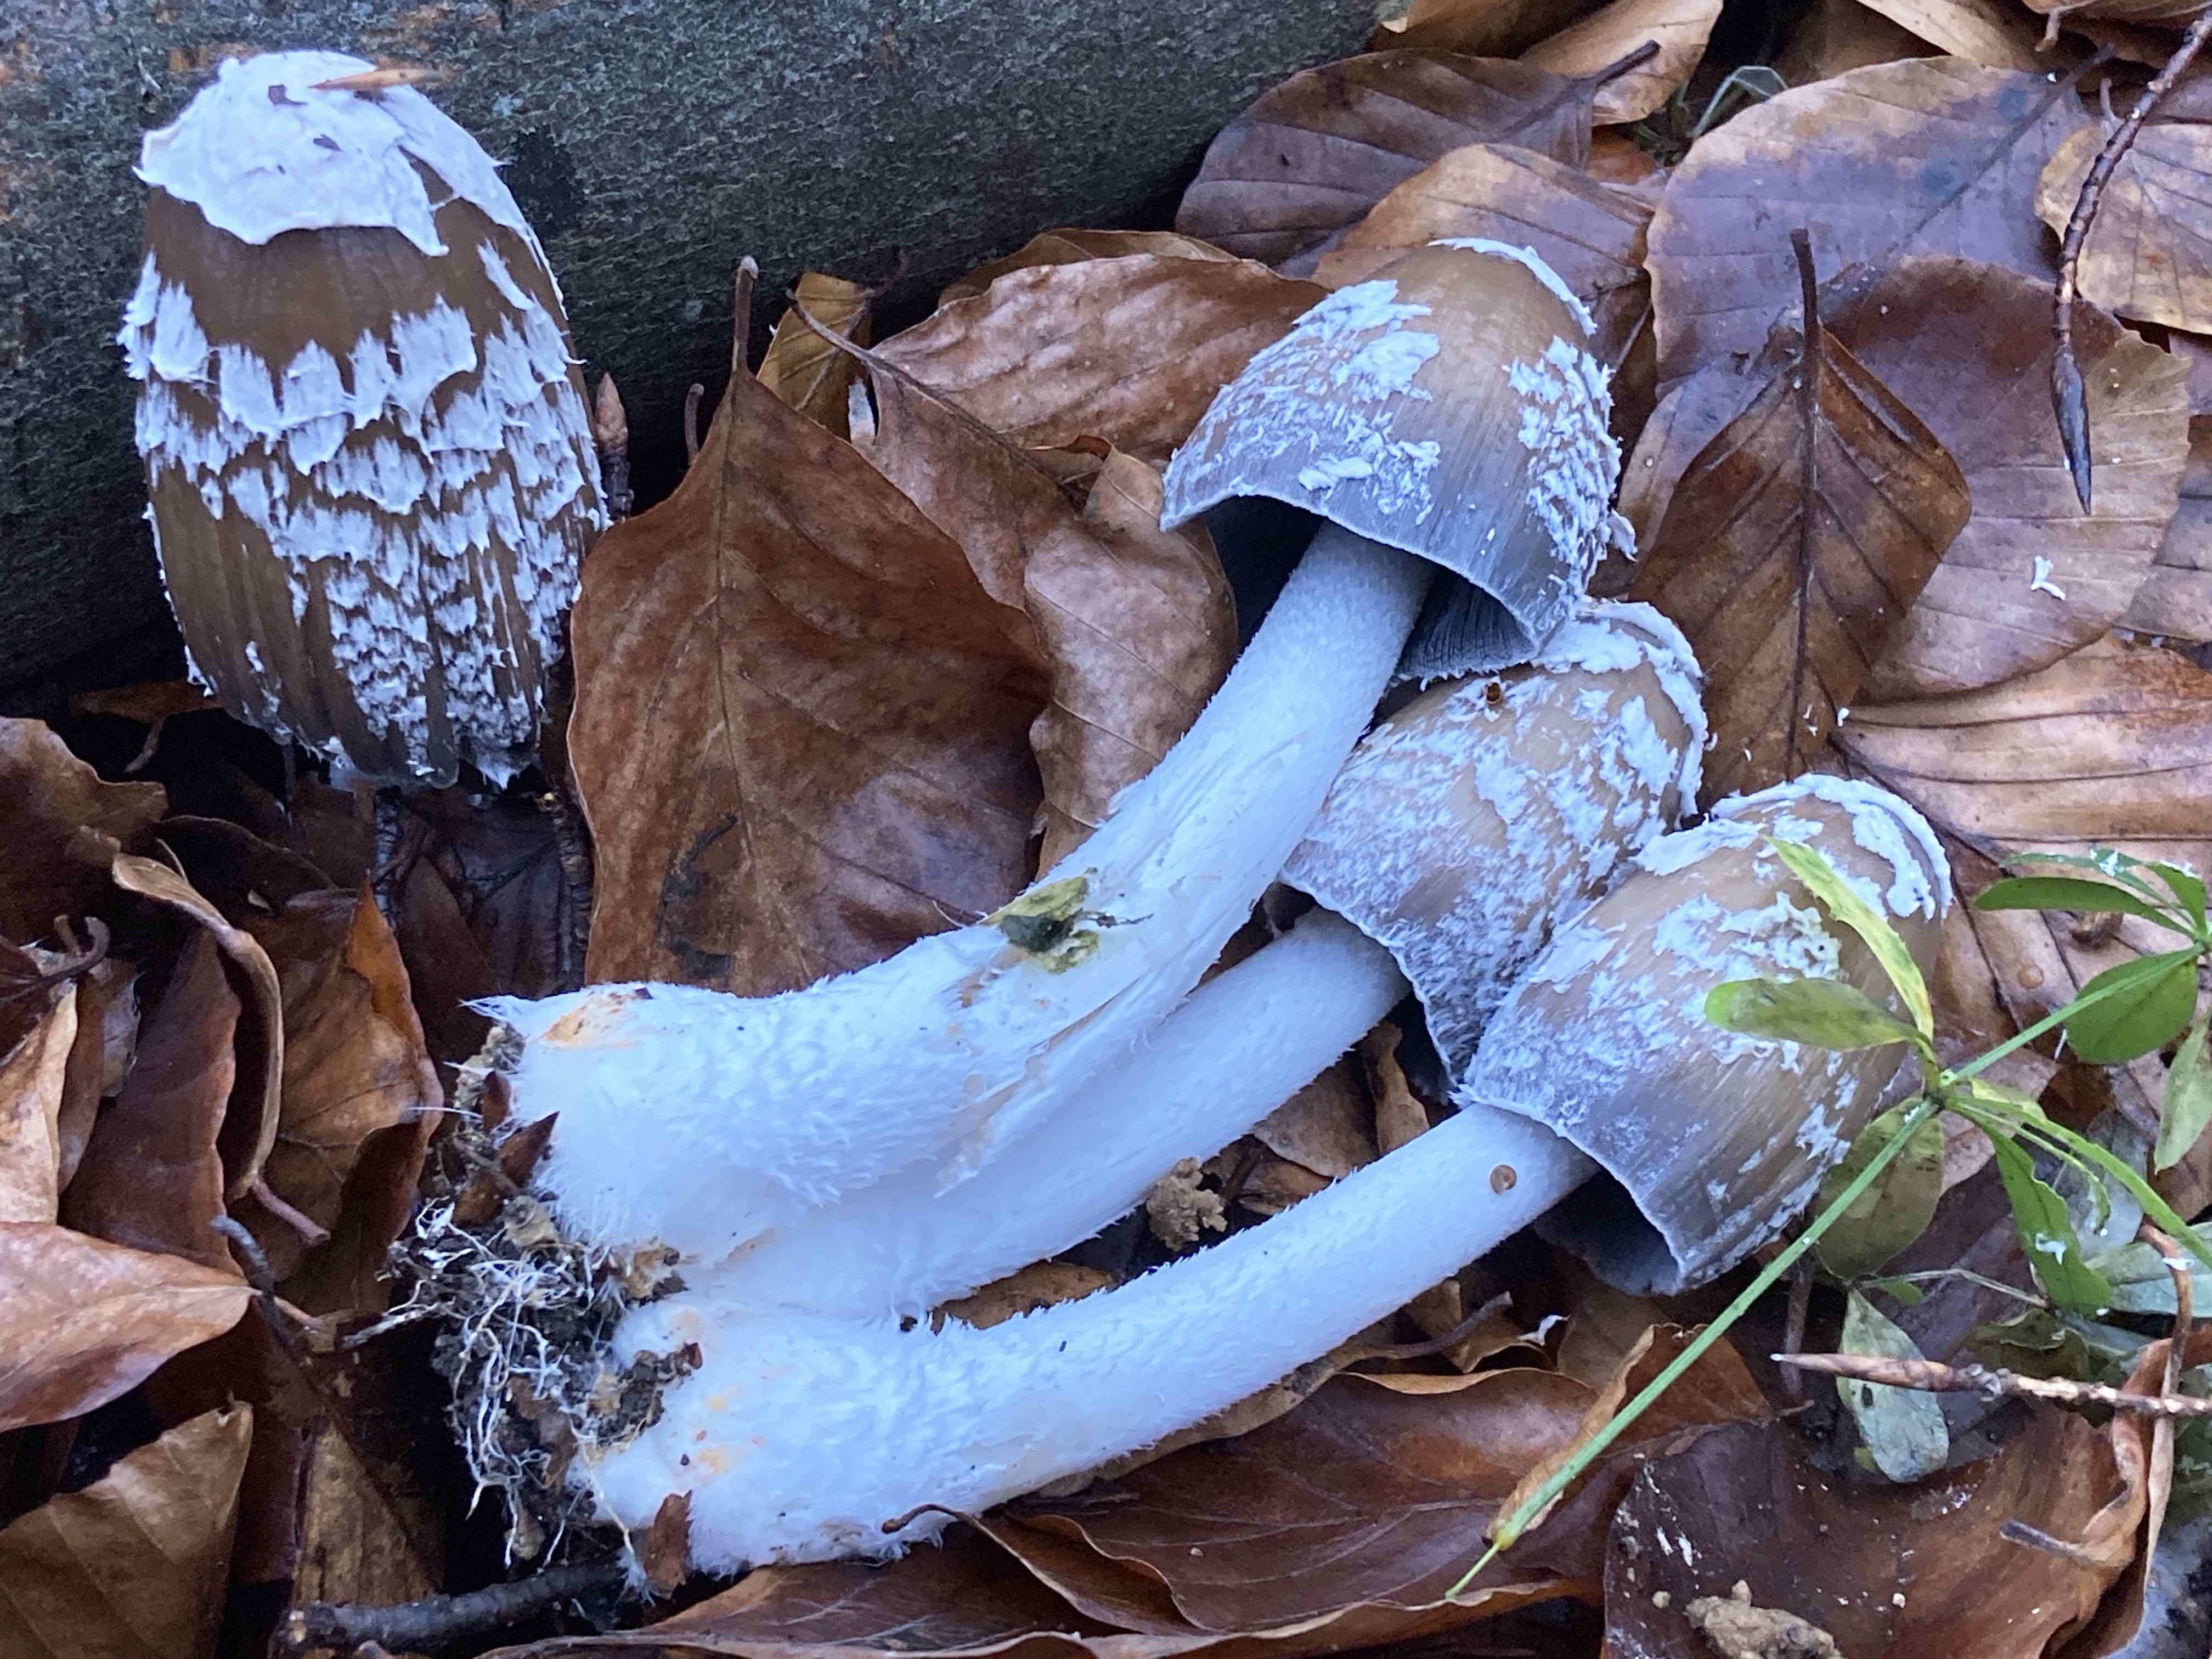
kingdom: Fungi
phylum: Basidiomycota
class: Agaricomycetes
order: Agaricales
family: Psathyrellaceae
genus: Coprinopsis
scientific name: Coprinopsis picacea
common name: skade-blækhat
